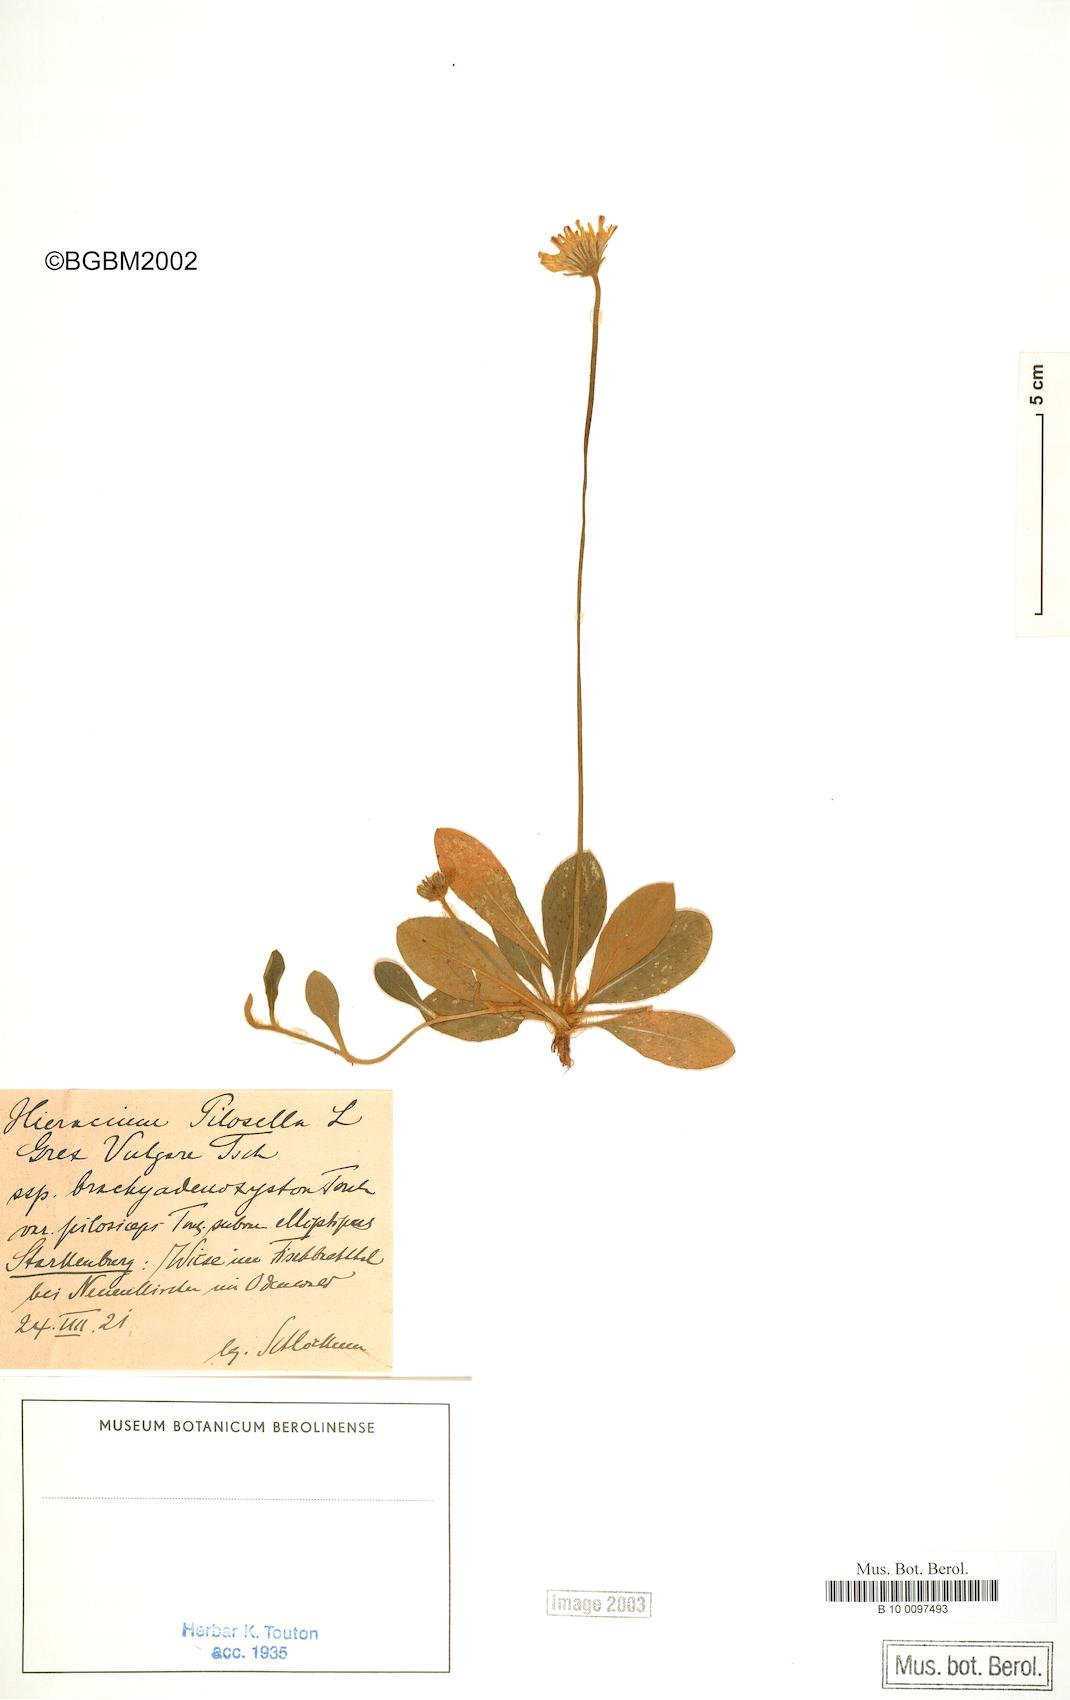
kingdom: Plantae
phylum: Tracheophyta
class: Magnoliopsida
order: Asterales
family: Asteraceae
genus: Pilosella
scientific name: Pilosella officinarum
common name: Mouse-ear hawkweed
